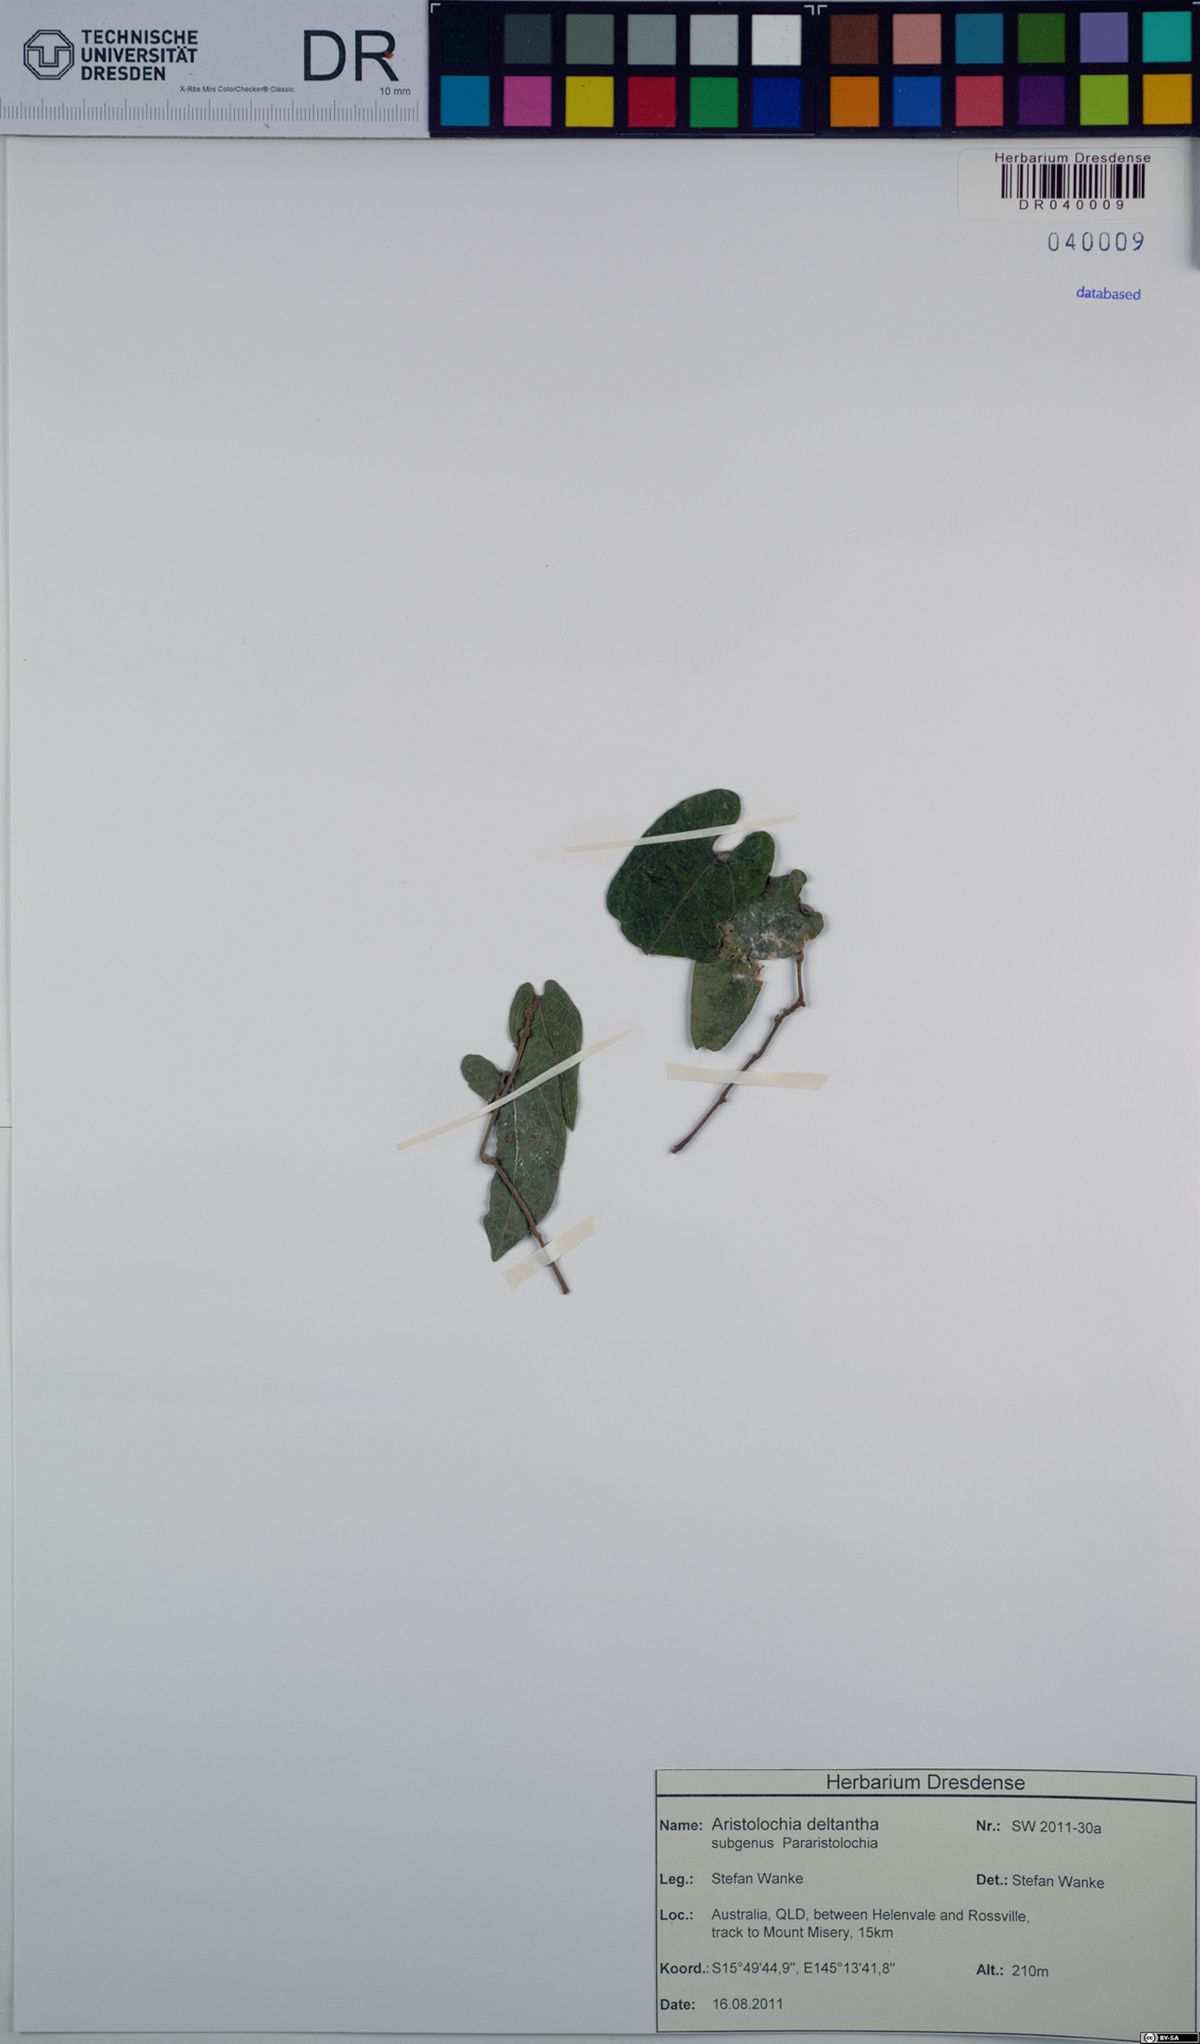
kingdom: Plantae
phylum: Tracheophyta
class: Magnoliopsida
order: Piperales
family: Aristolochiaceae
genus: Aristolochia
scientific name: Aristolochia deltantha
